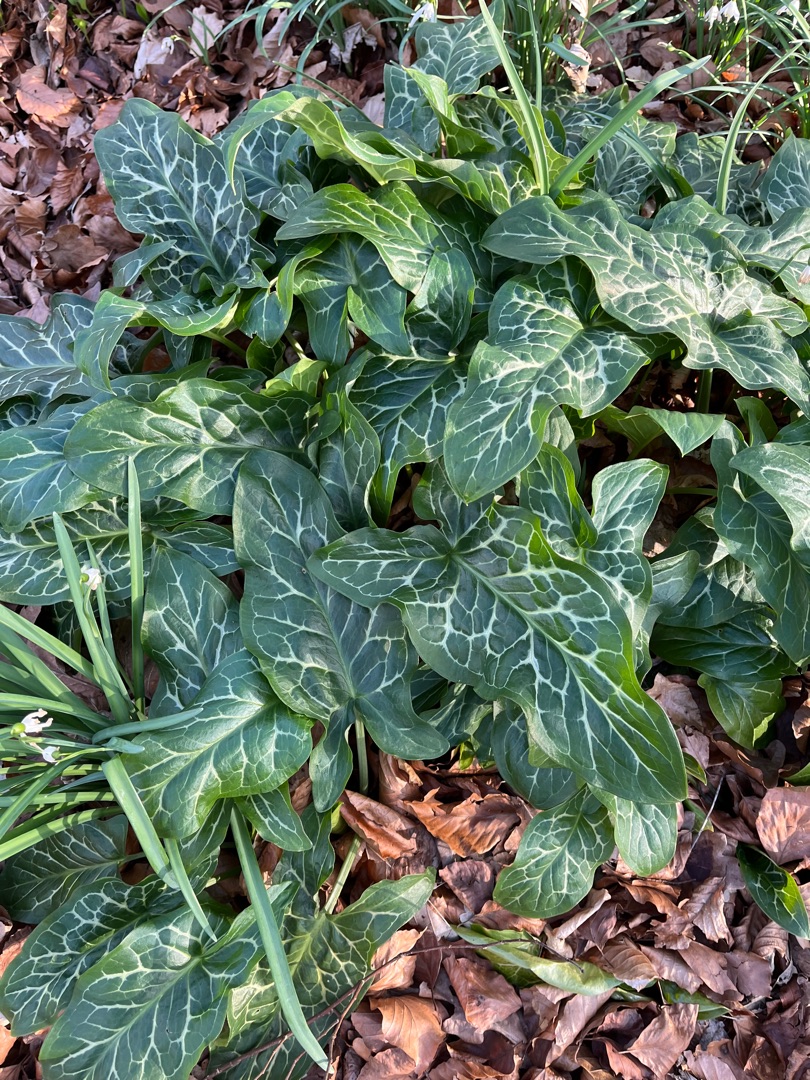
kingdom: Plantae
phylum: Tracheophyta
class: Liliopsida
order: Alismatales
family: Araceae
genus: Arum
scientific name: Arum italicum
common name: Italiensk arum
